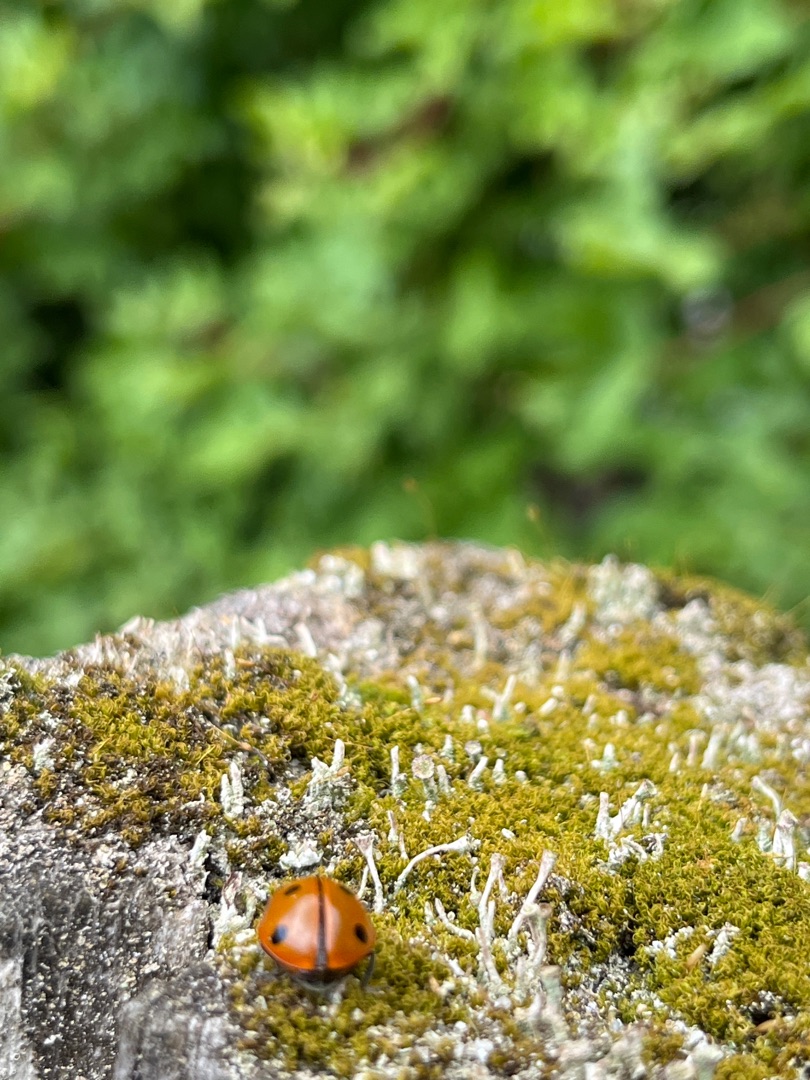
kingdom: Animalia
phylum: Arthropoda
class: Insecta
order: Coleoptera
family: Coccinellidae
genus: Coccinella
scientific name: Coccinella septempunctata
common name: Syvplettet mariehøne
